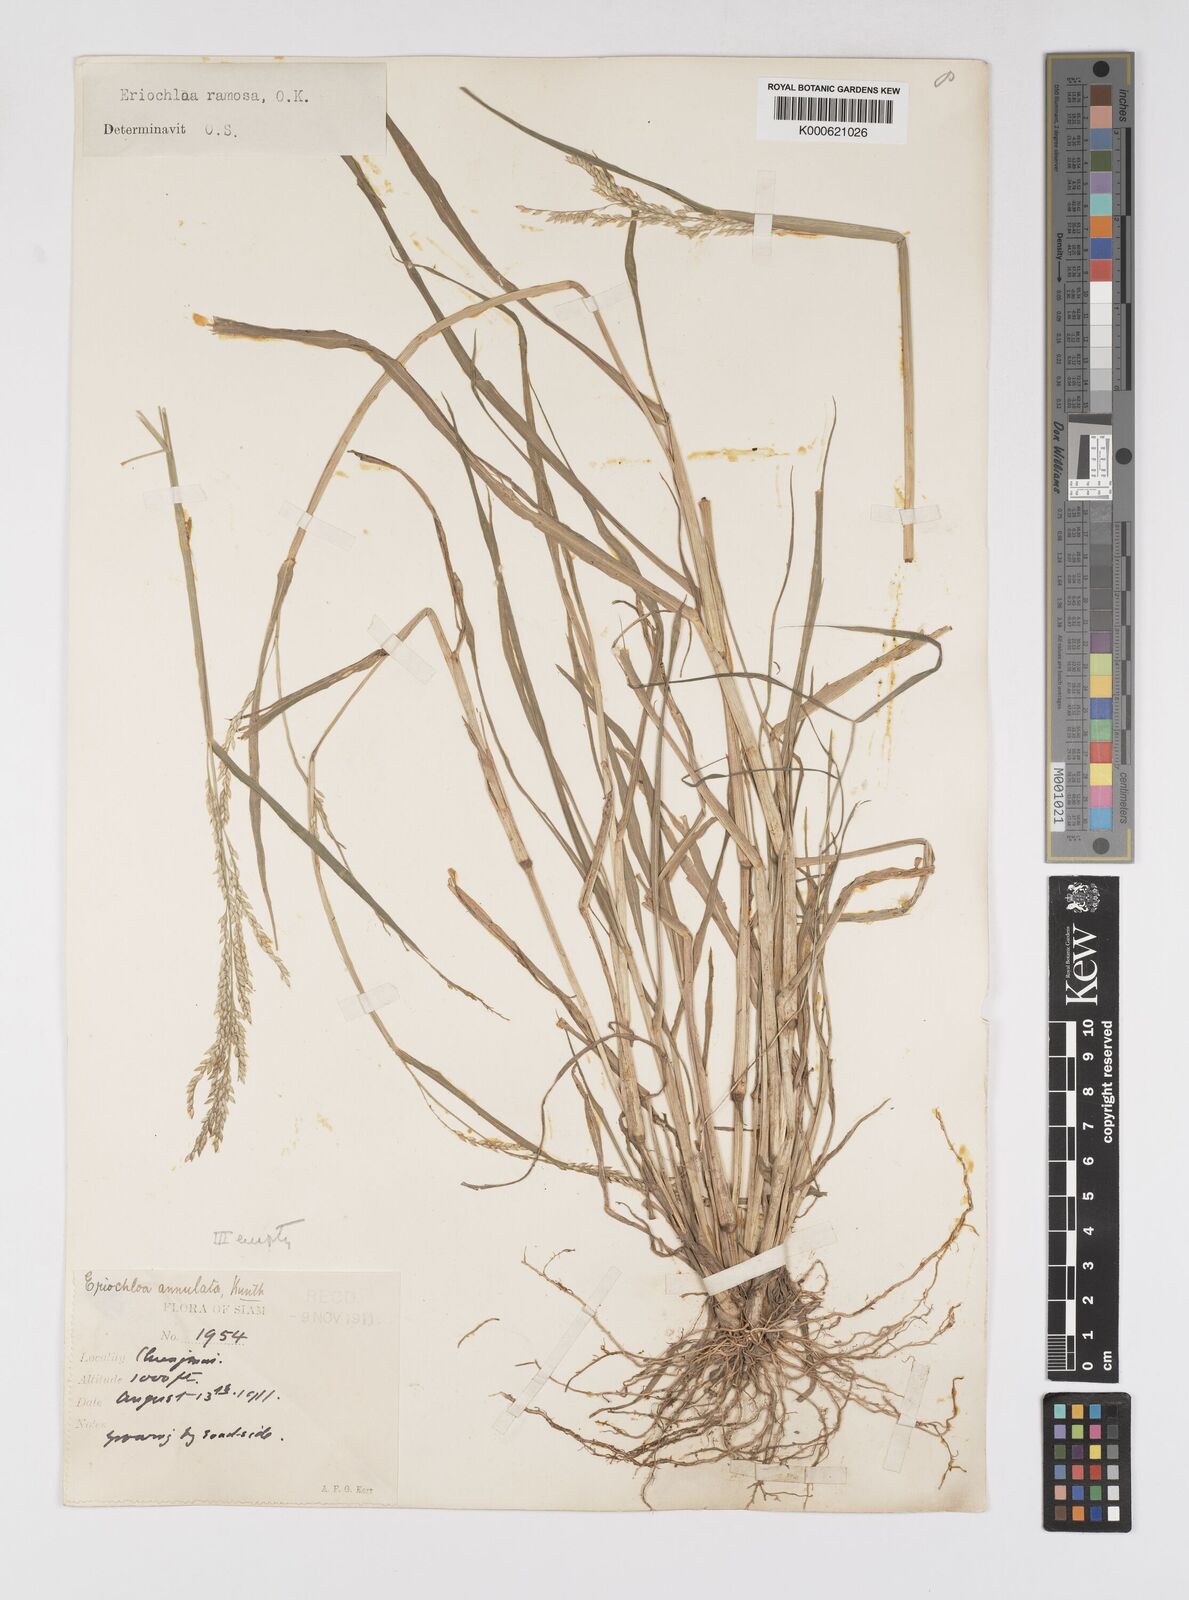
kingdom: Plantae
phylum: Tracheophyta
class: Liliopsida
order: Poales
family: Poaceae
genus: Eriochloa
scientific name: Eriochloa procera
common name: Spring grass
